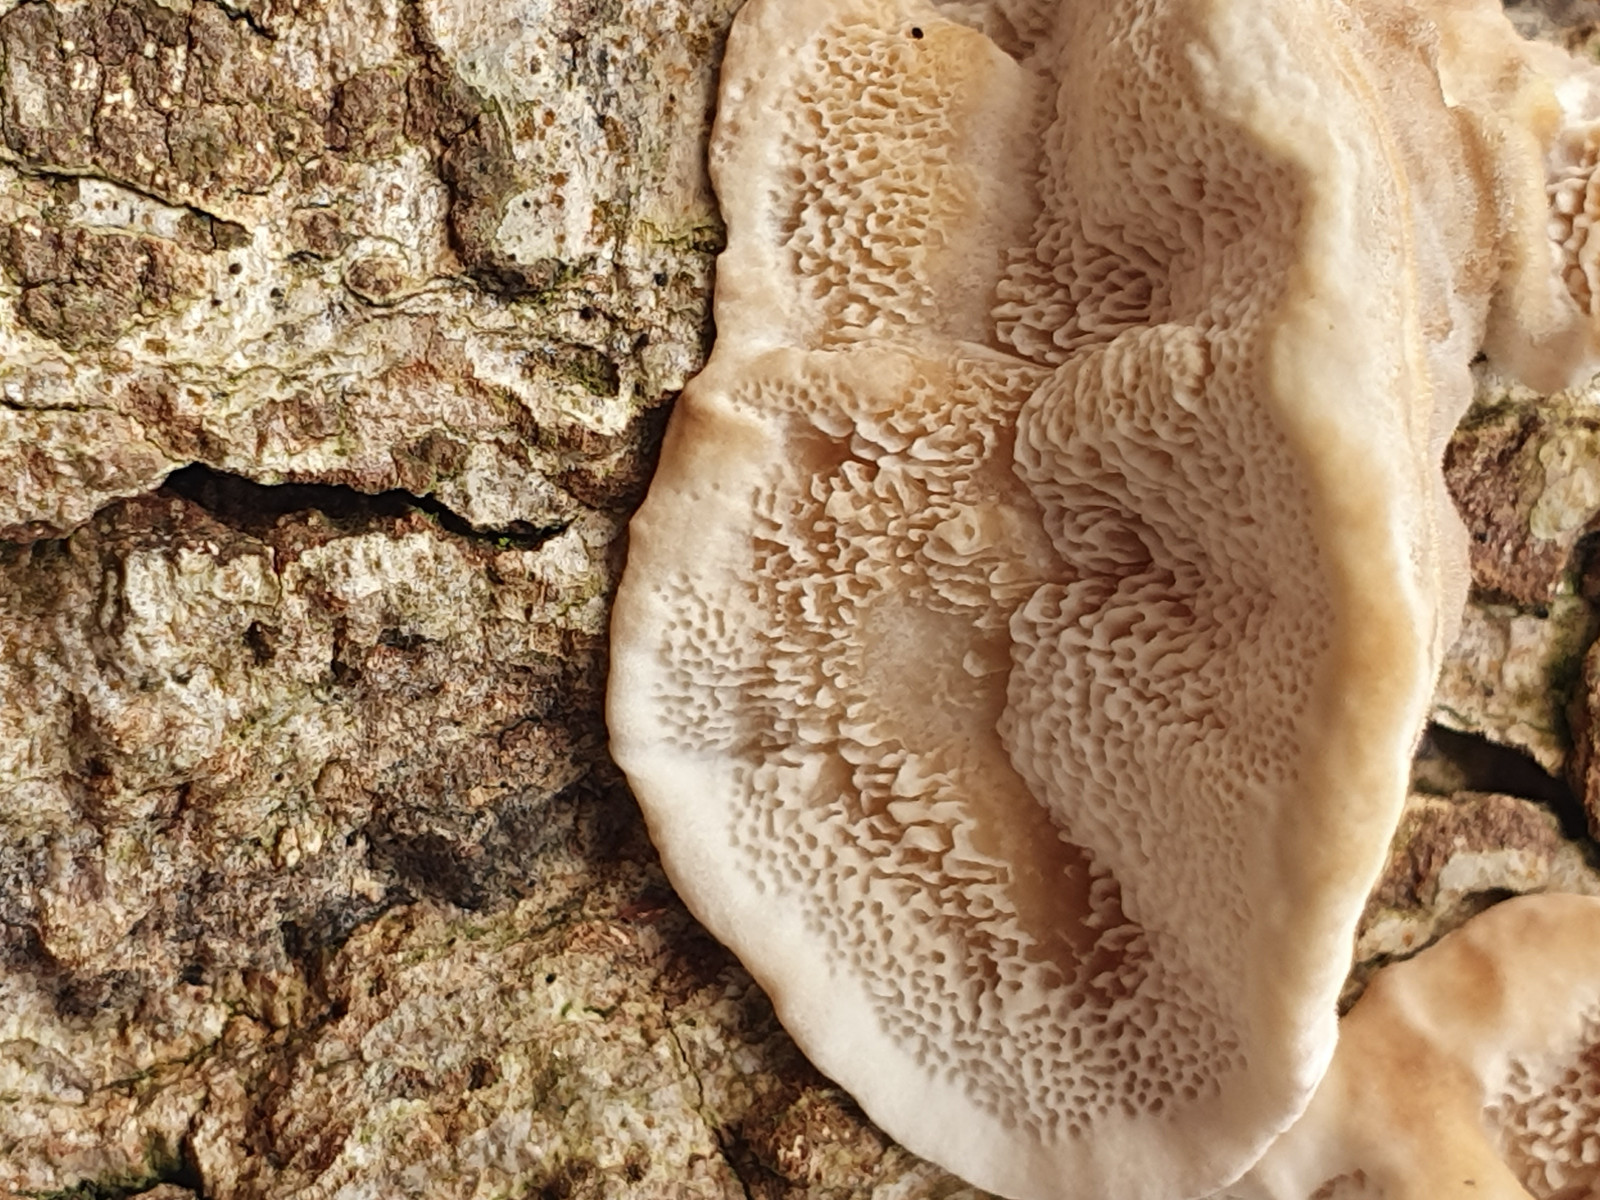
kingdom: Fungi
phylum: Basidiomycota
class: Agaricomycetes
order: Polyporales
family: Polyporaceae
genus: Trametes
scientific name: Trametes versicolor
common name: broget læderporesvamp
